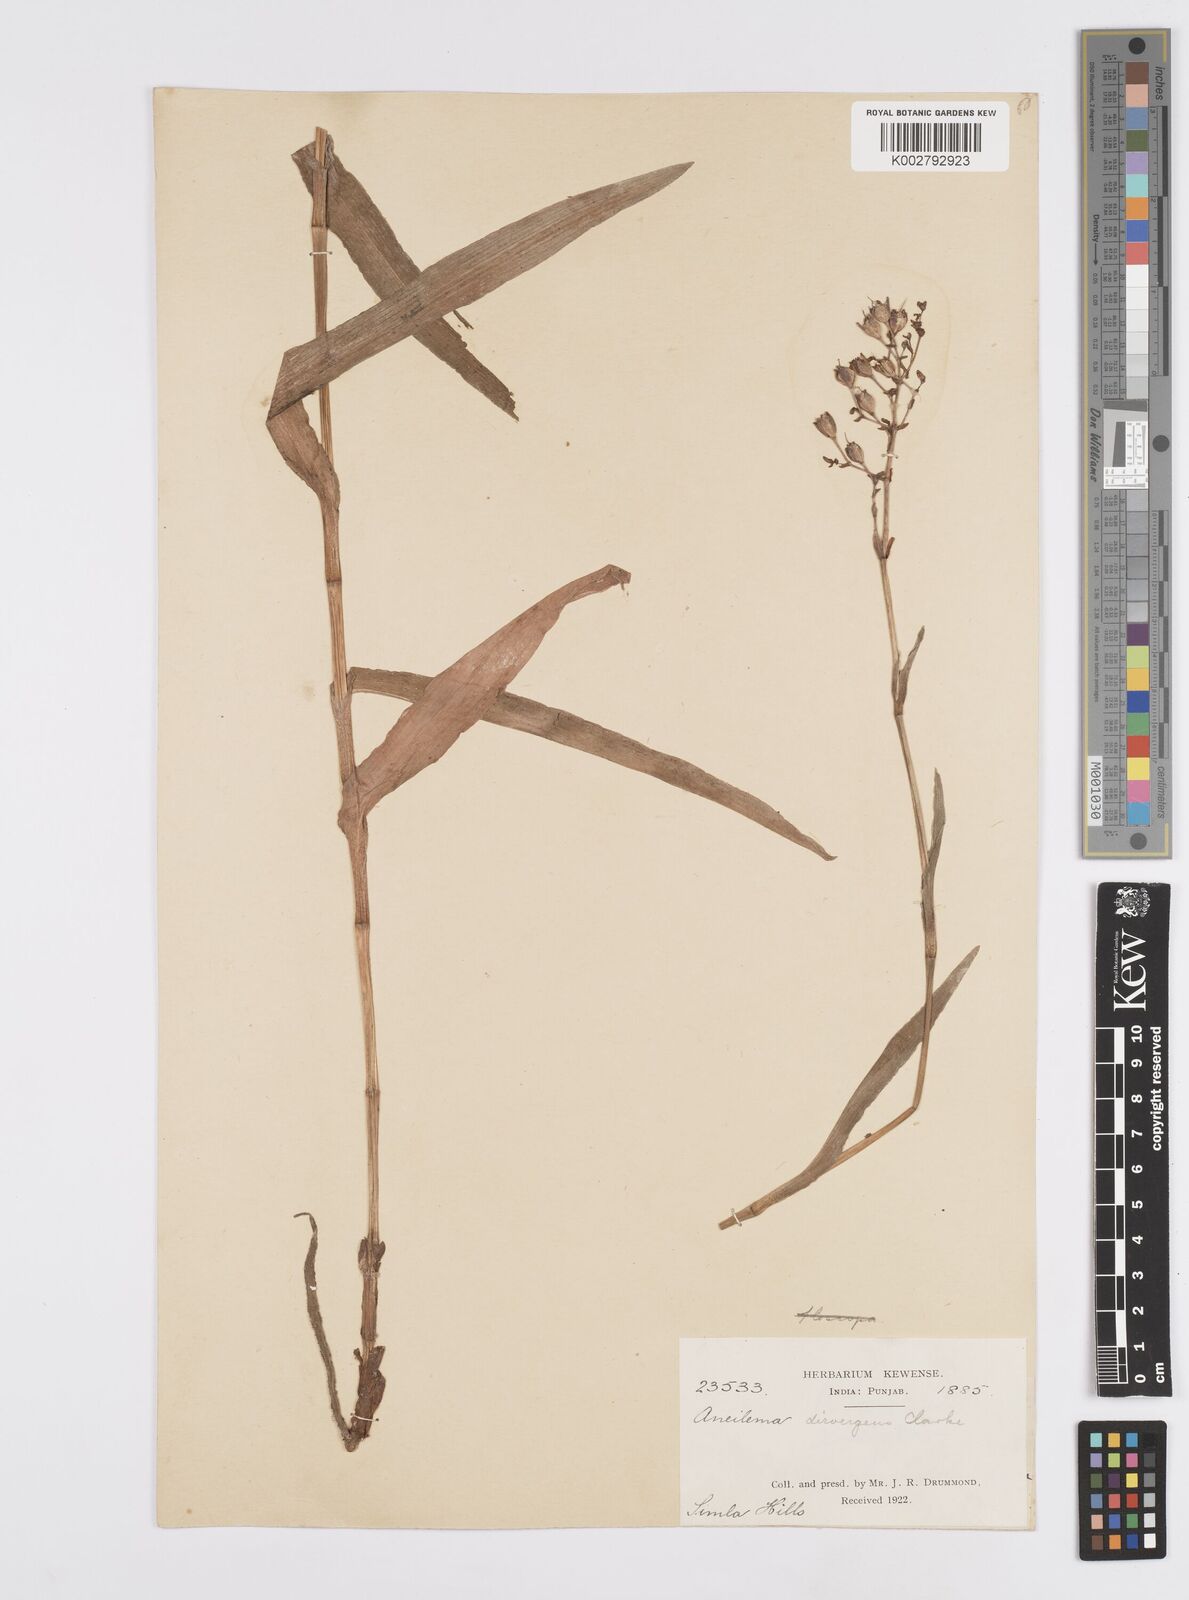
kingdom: Plantae
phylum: Tracheophyta
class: Liliopsida
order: Commelinales
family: Commelinaceae
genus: Murdannia
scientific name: Murdannia divergens
